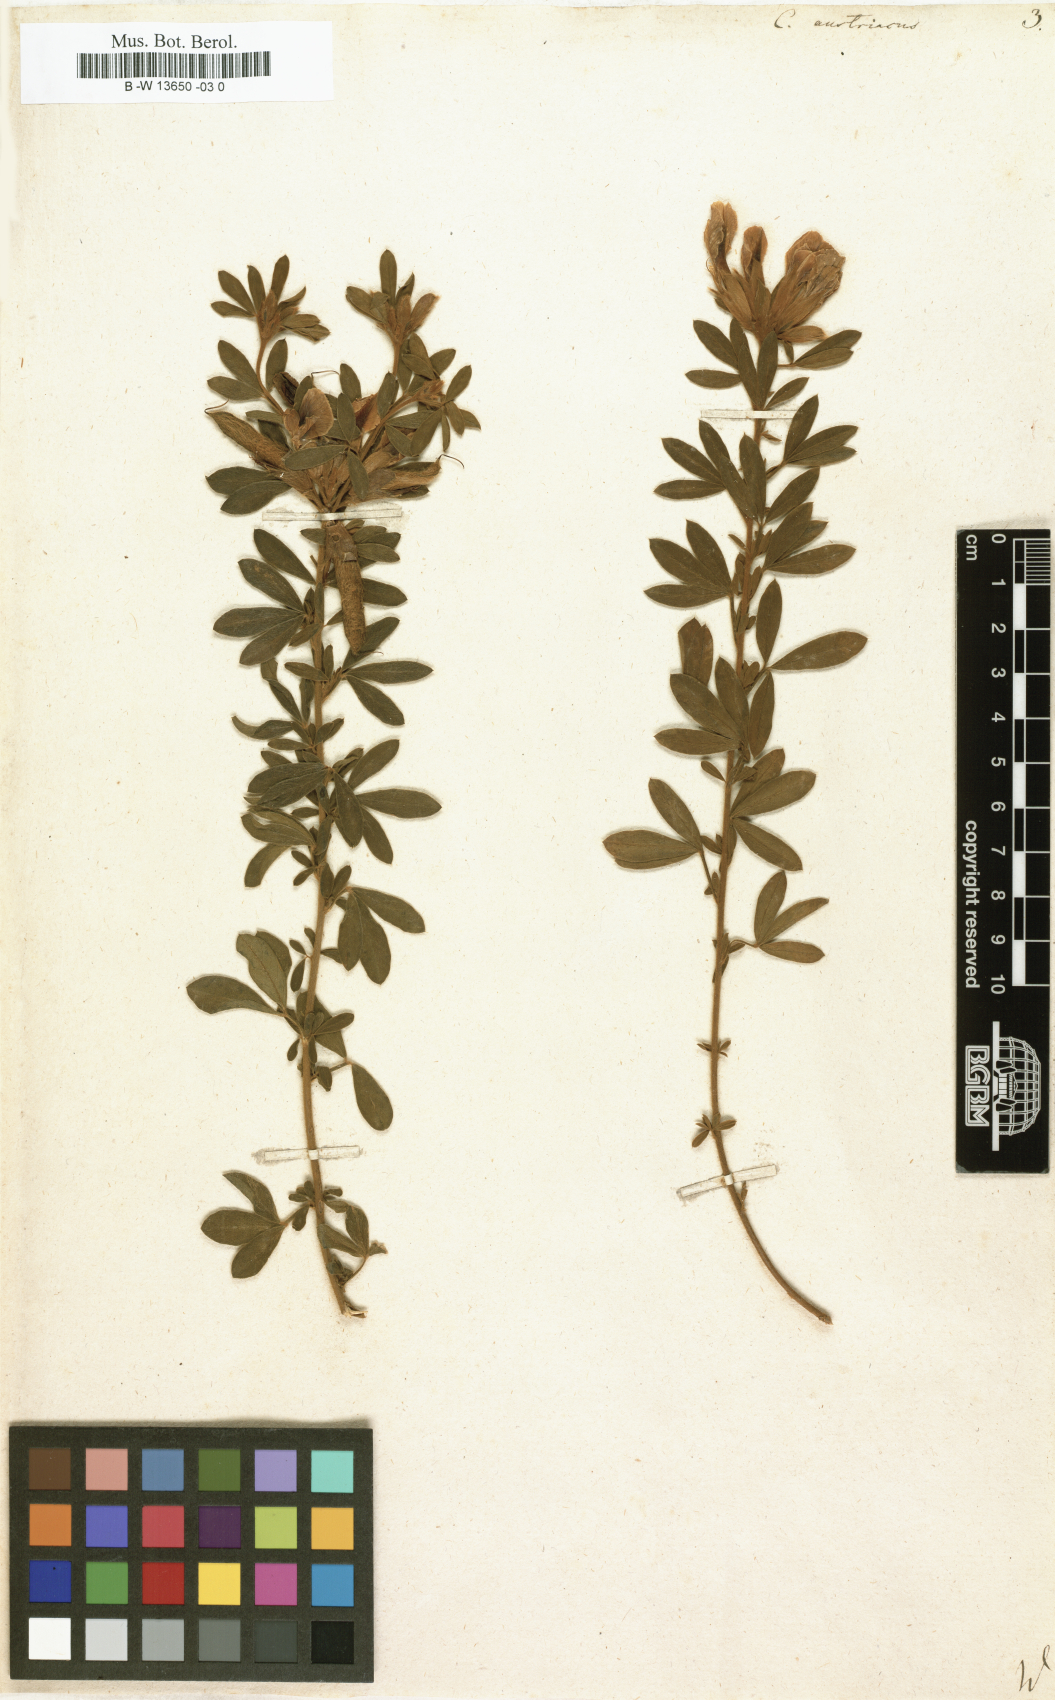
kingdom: Plantae
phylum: Tracheophyta
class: Magnoliopsida
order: Fabales
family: Fabaceae
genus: Chamaecytisus
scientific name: Chamaecytisus austriacus
